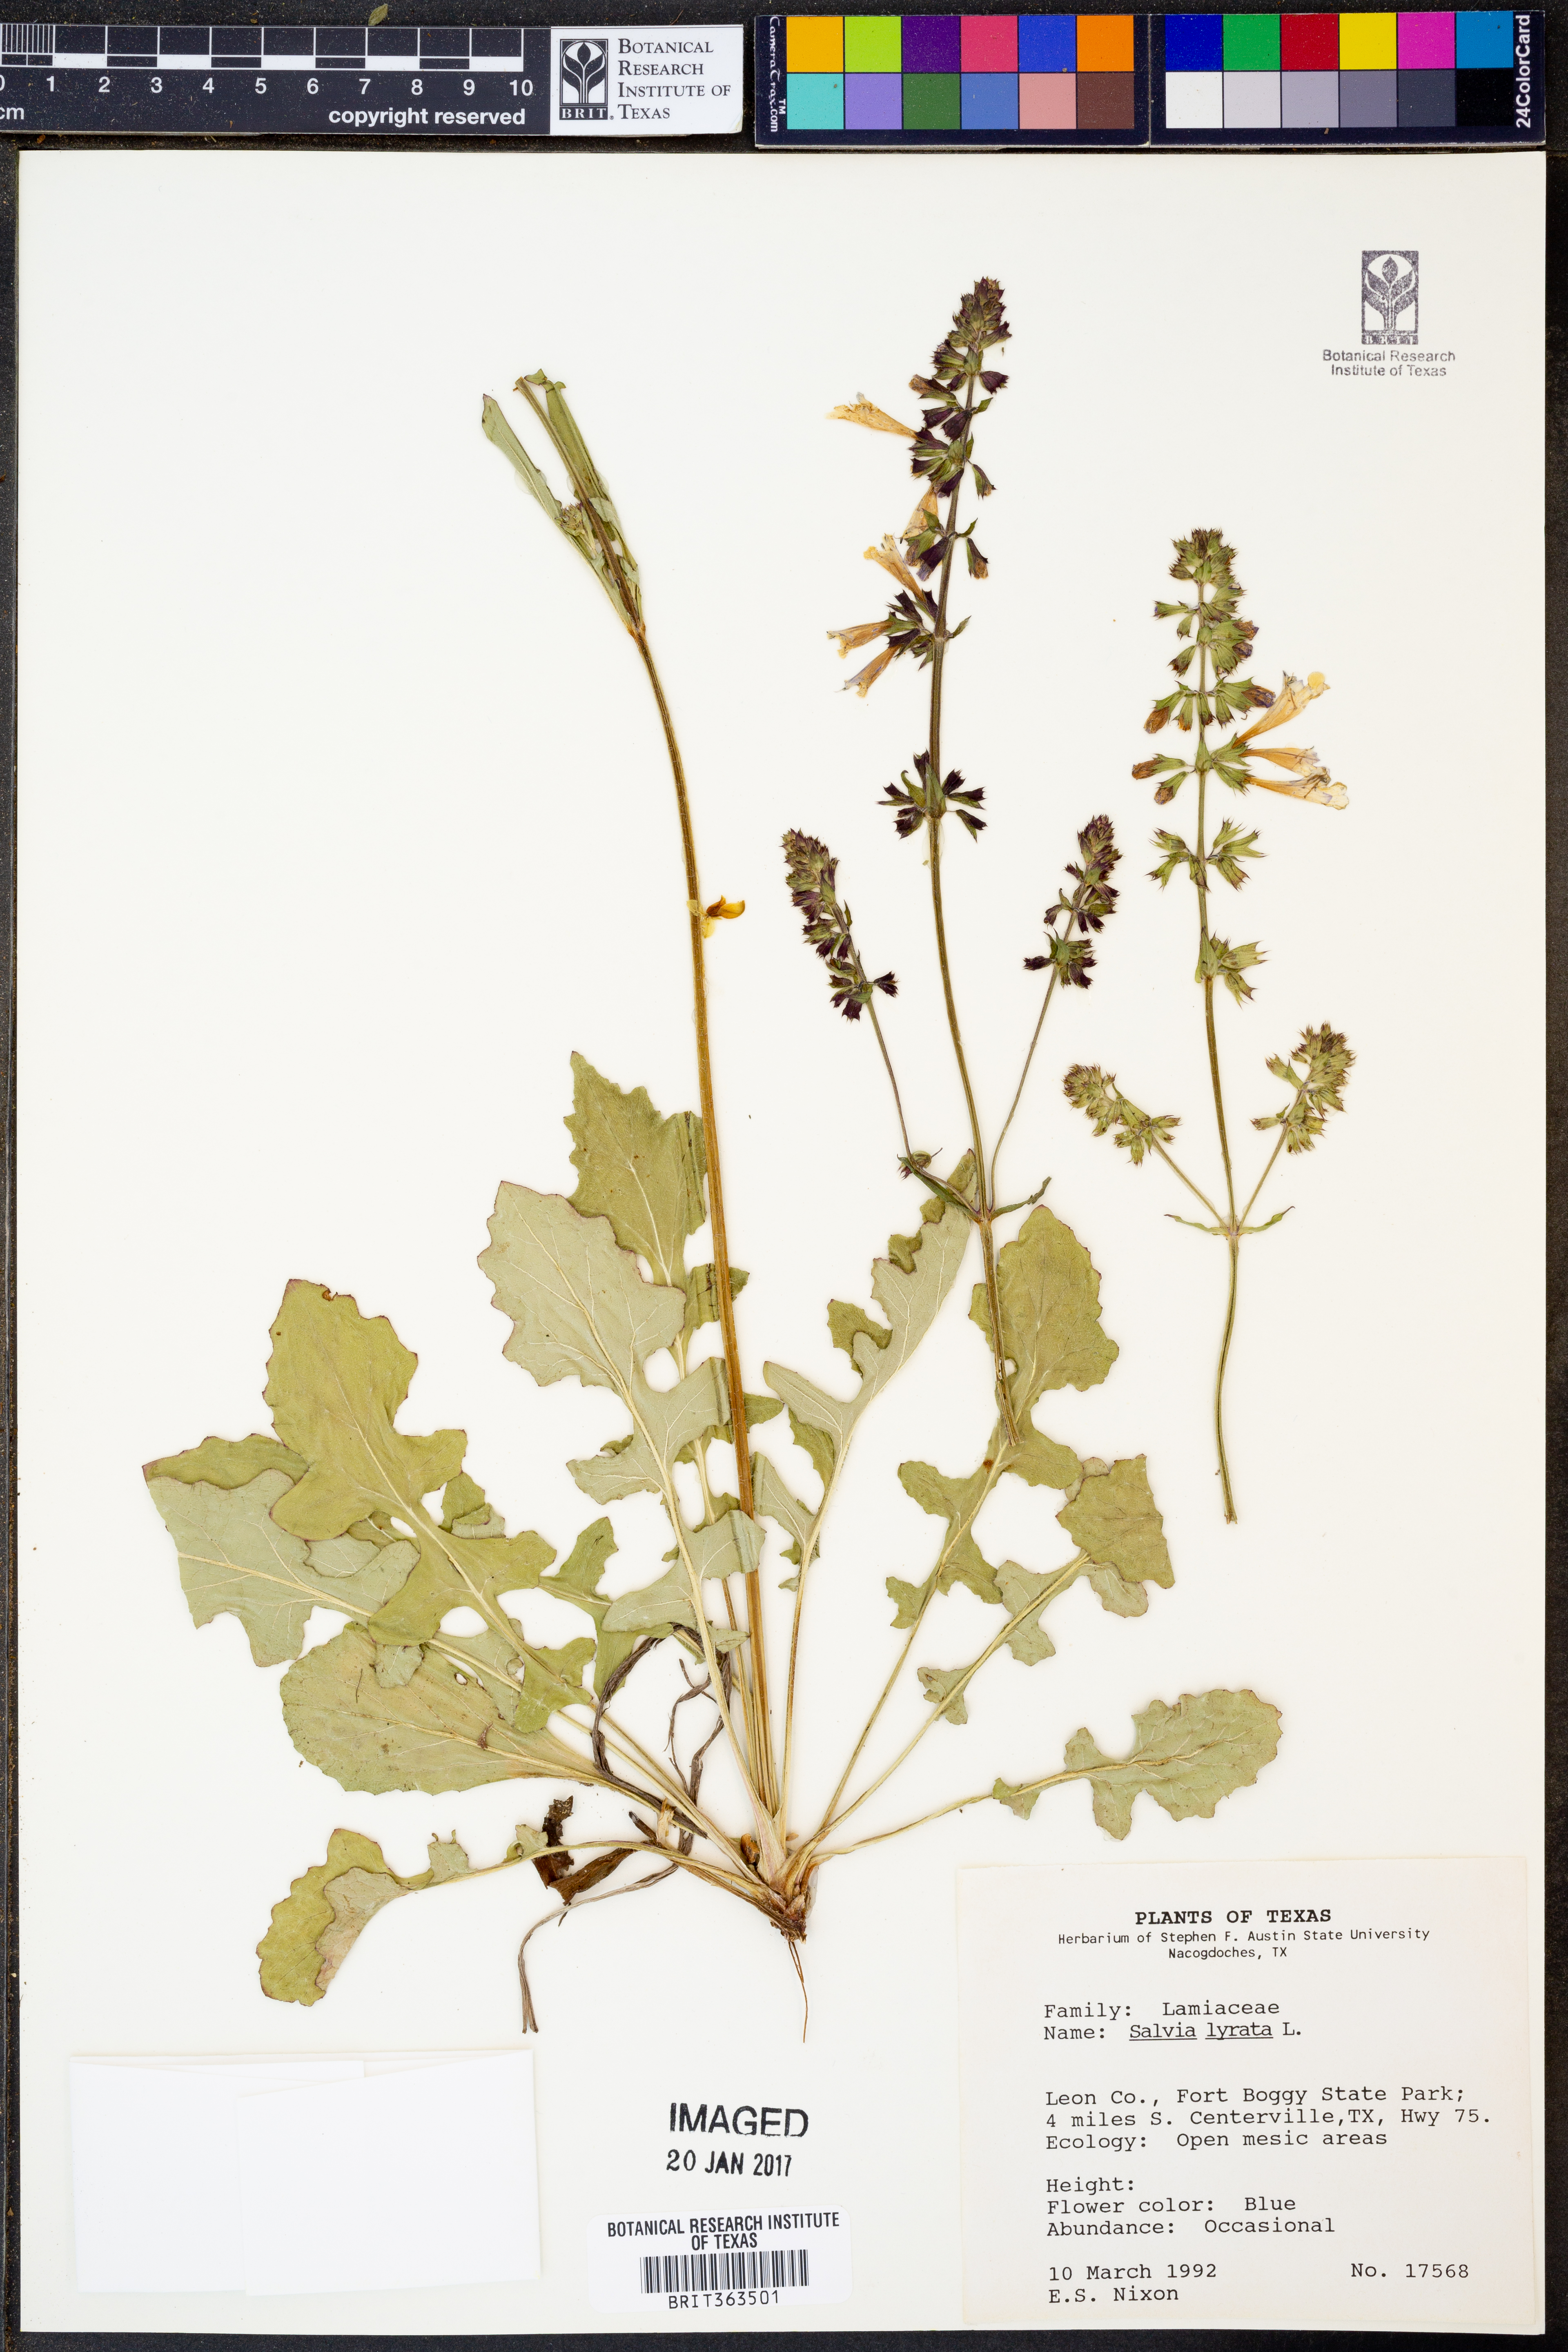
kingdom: Plantae
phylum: Tracheophyta
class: Magnoliopsida
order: Lamiales
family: Lamiaceae
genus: Salvia
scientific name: Salvia lyrata
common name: Cancerweed
